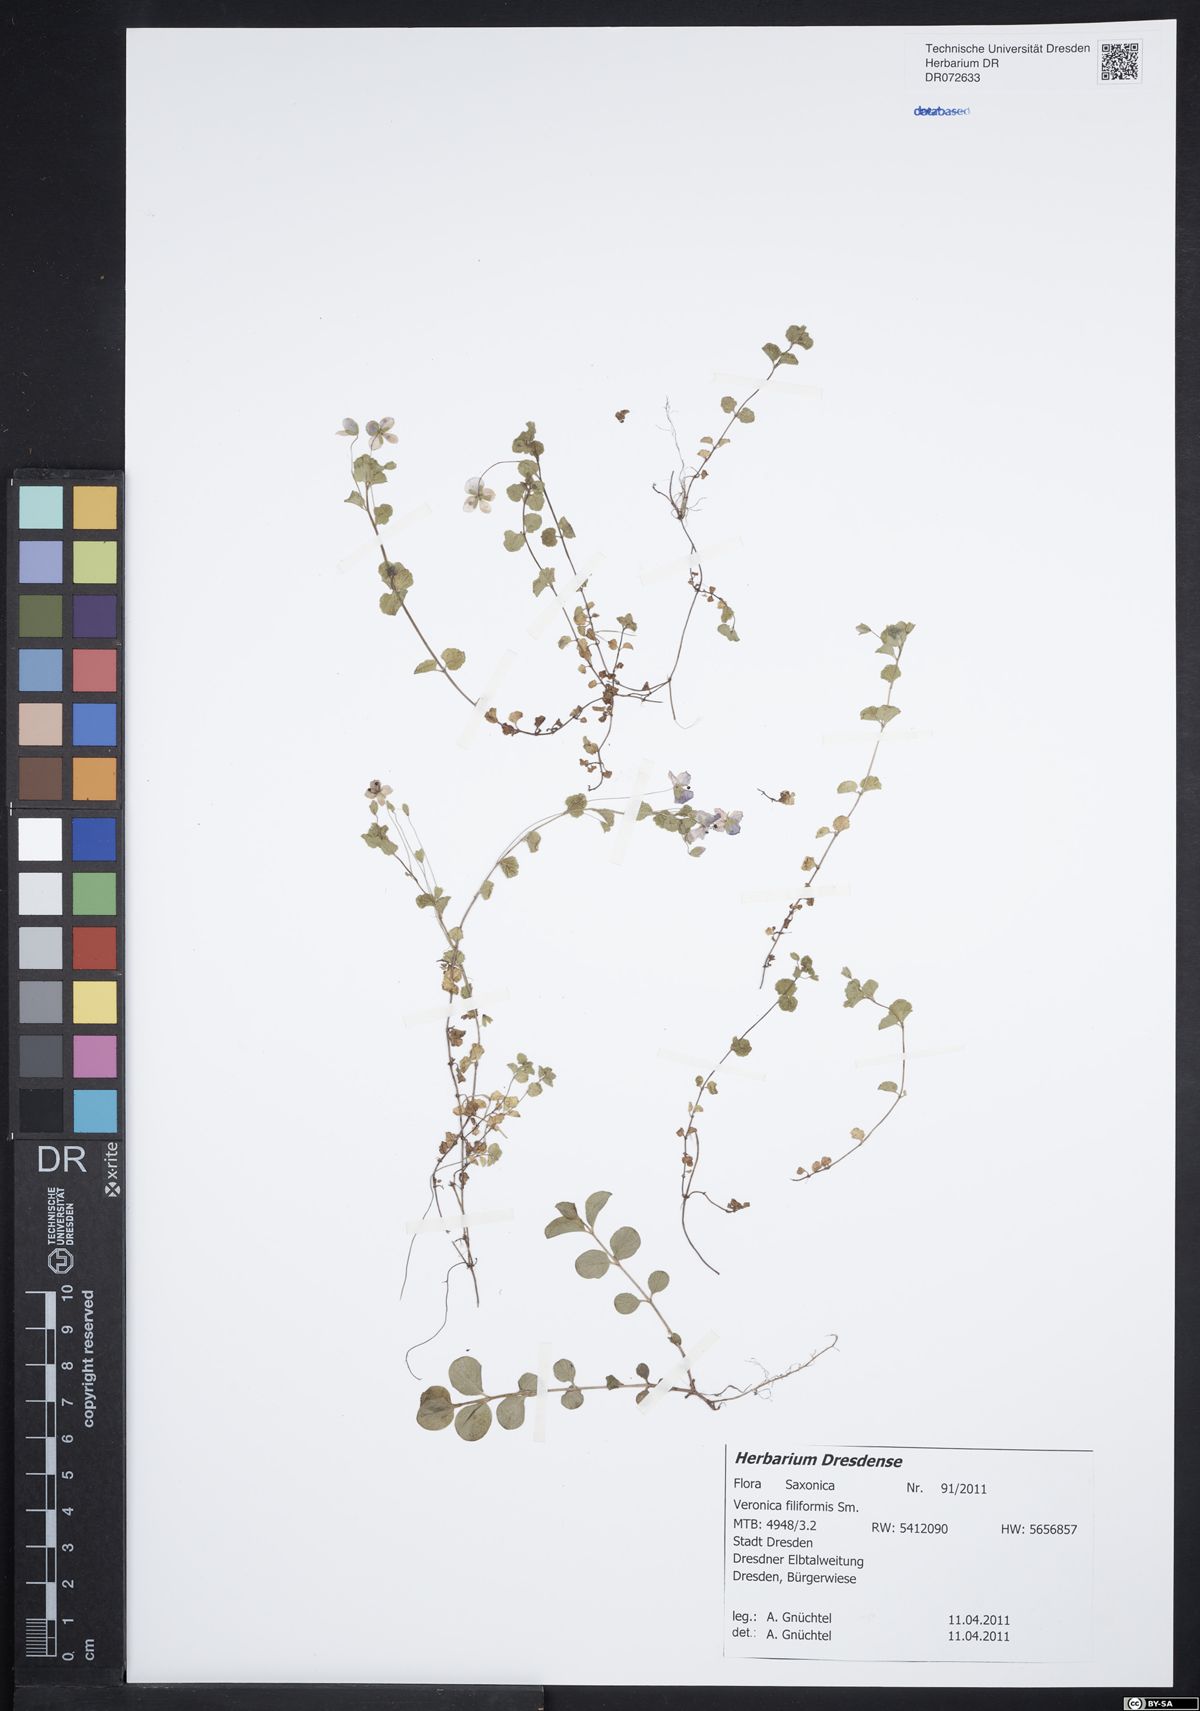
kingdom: Plantae
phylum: Tracheophyta
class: Magnoliopsida
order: Lamiales
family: Plantaginaceae
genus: Veronica
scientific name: Veronica filiformis
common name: Slender speedwell
